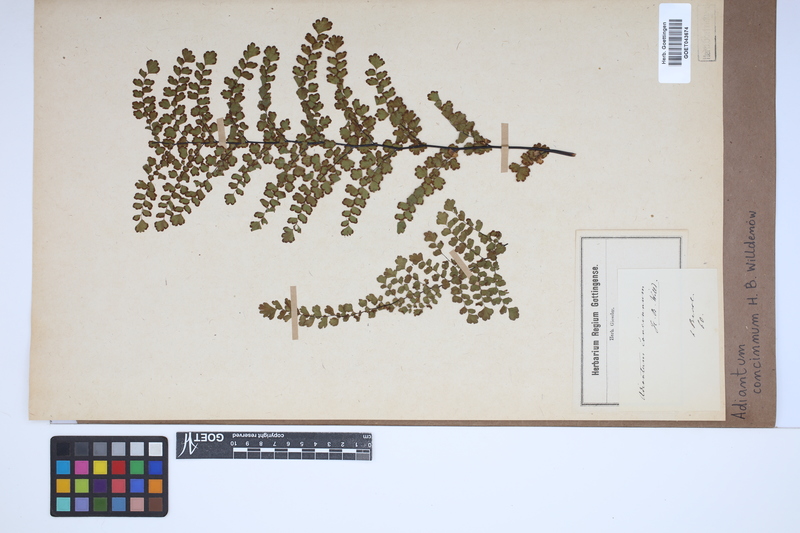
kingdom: Plantae
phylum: Tracheophyta
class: Polypodiopsida
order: Polypodiales
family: Pteridaceae
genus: Adiantum
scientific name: Adiantum concinnum
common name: Brittle maidenhair fern
